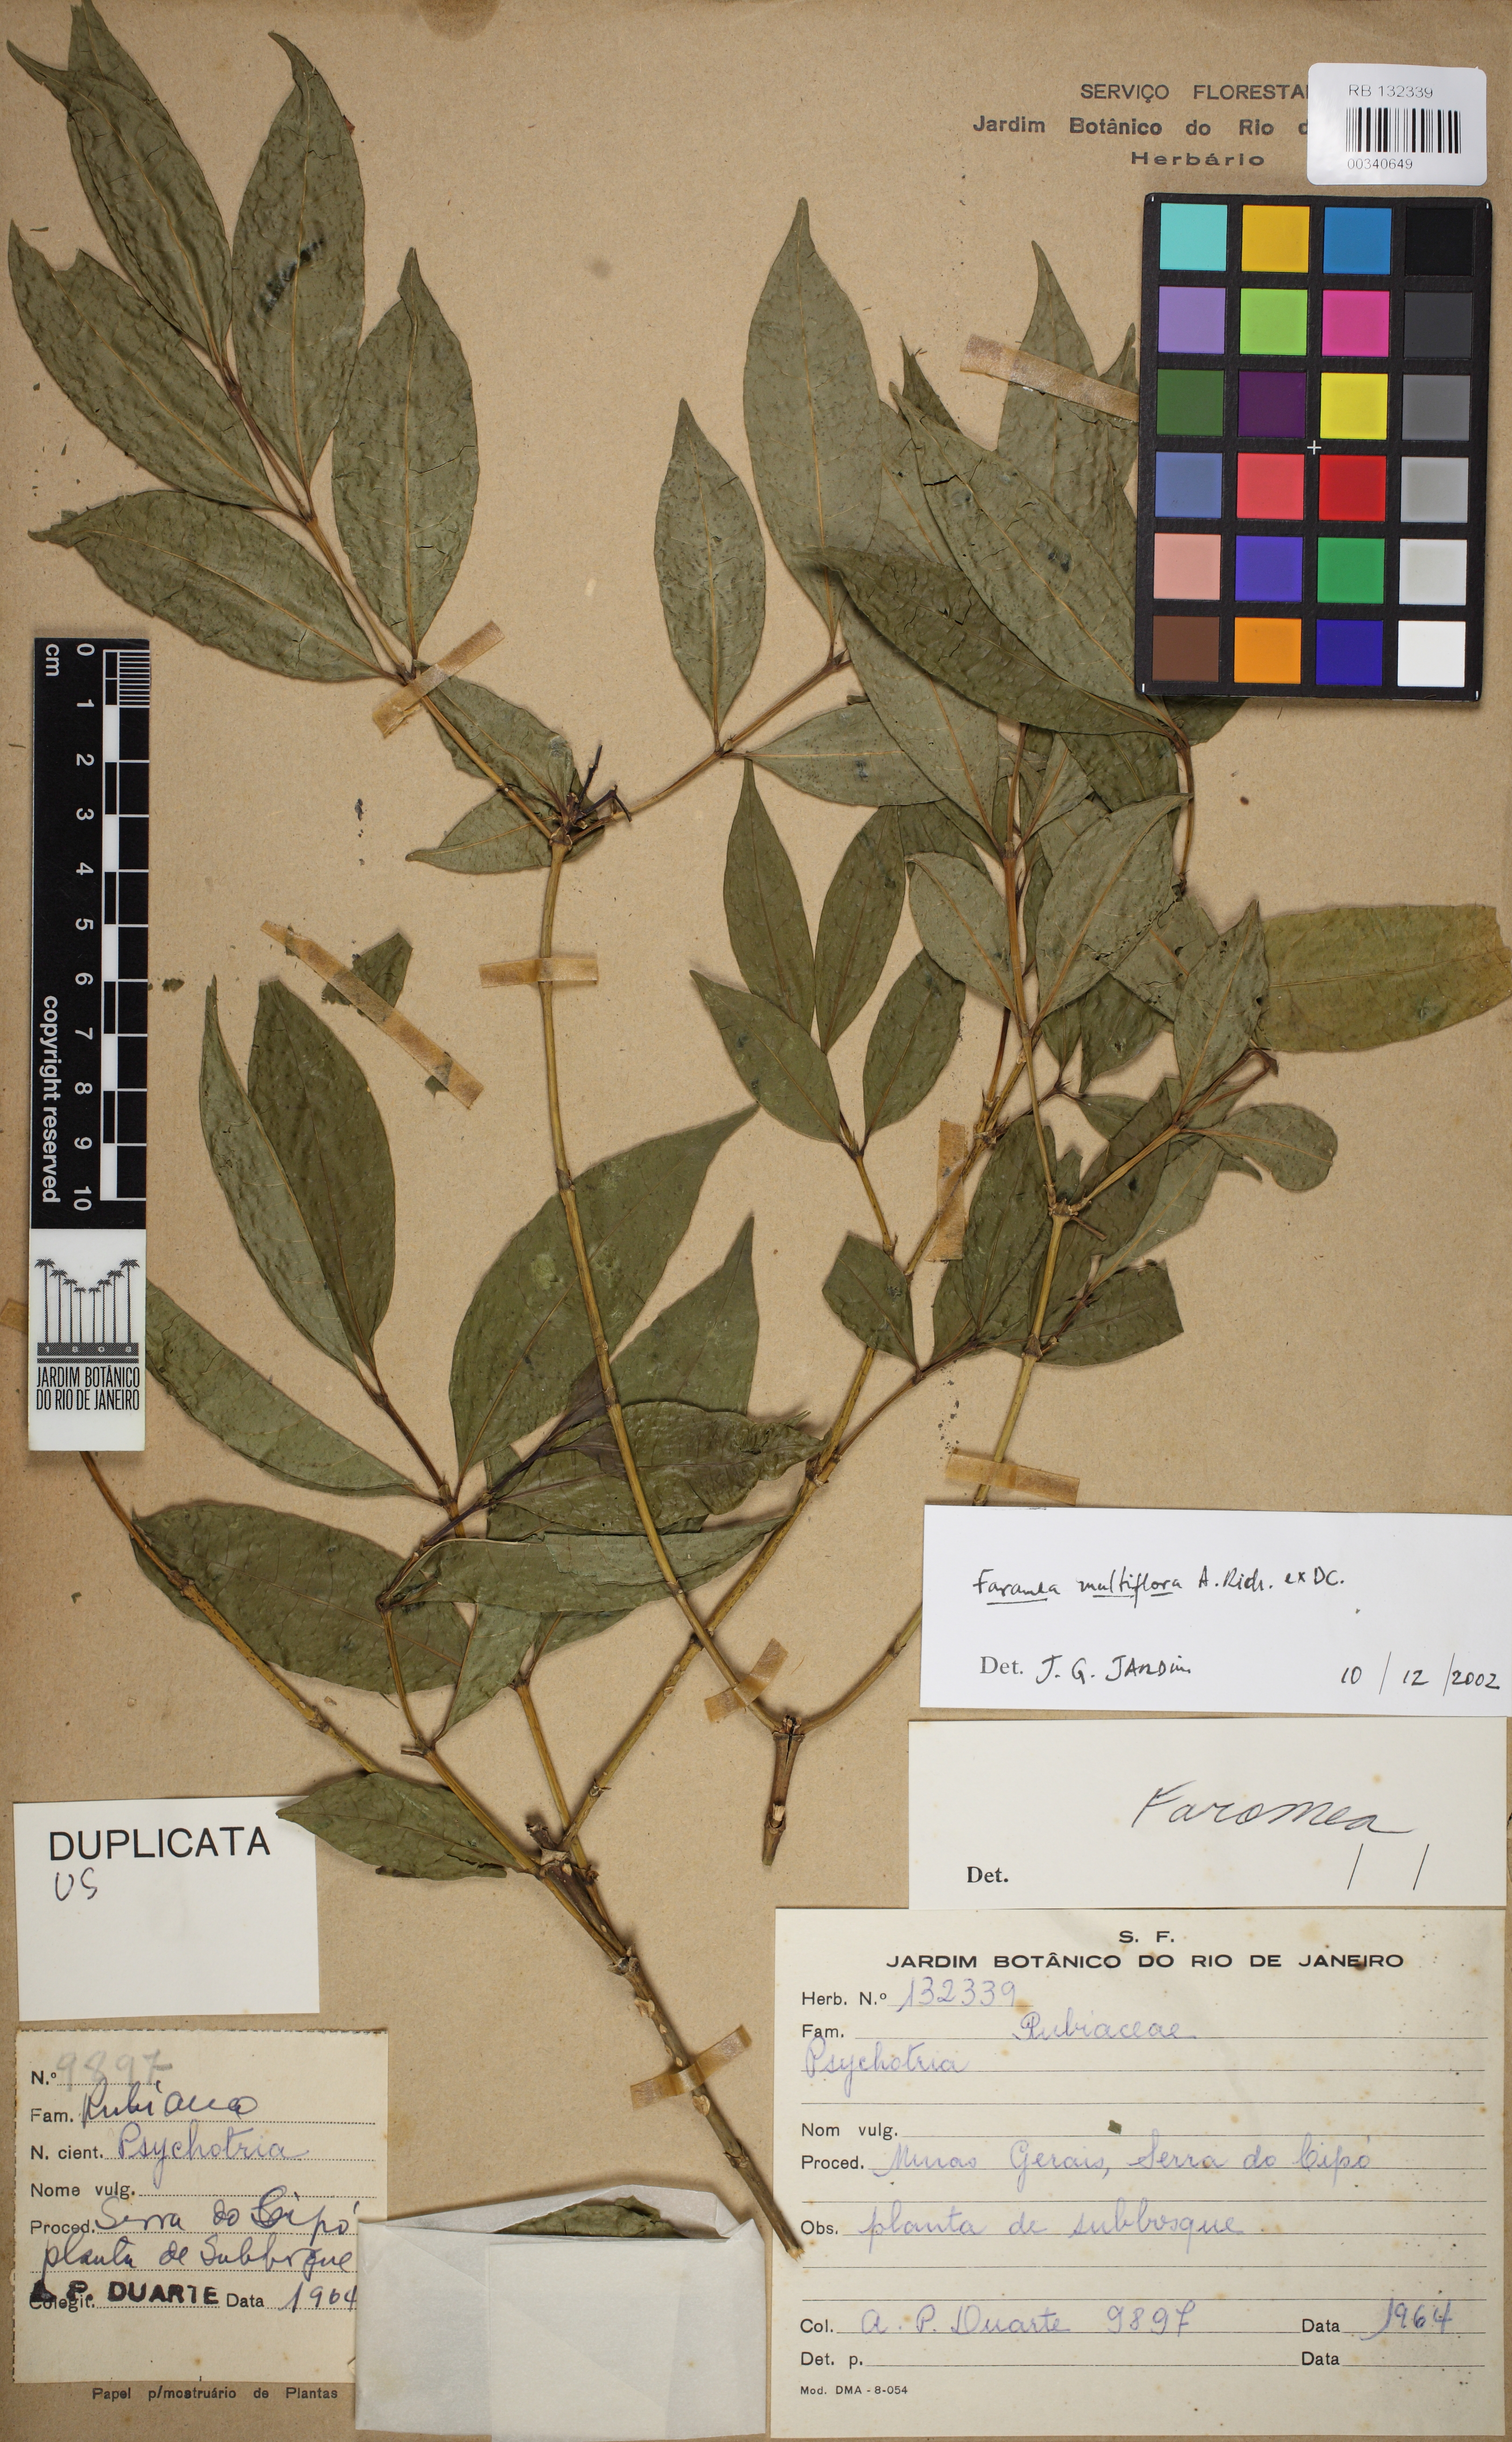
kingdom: Plantae
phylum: Tracheophyta
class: Magnoliopsida
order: Gentianales
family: Rubiaceae
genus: Faramea
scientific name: Faramea multiflora
